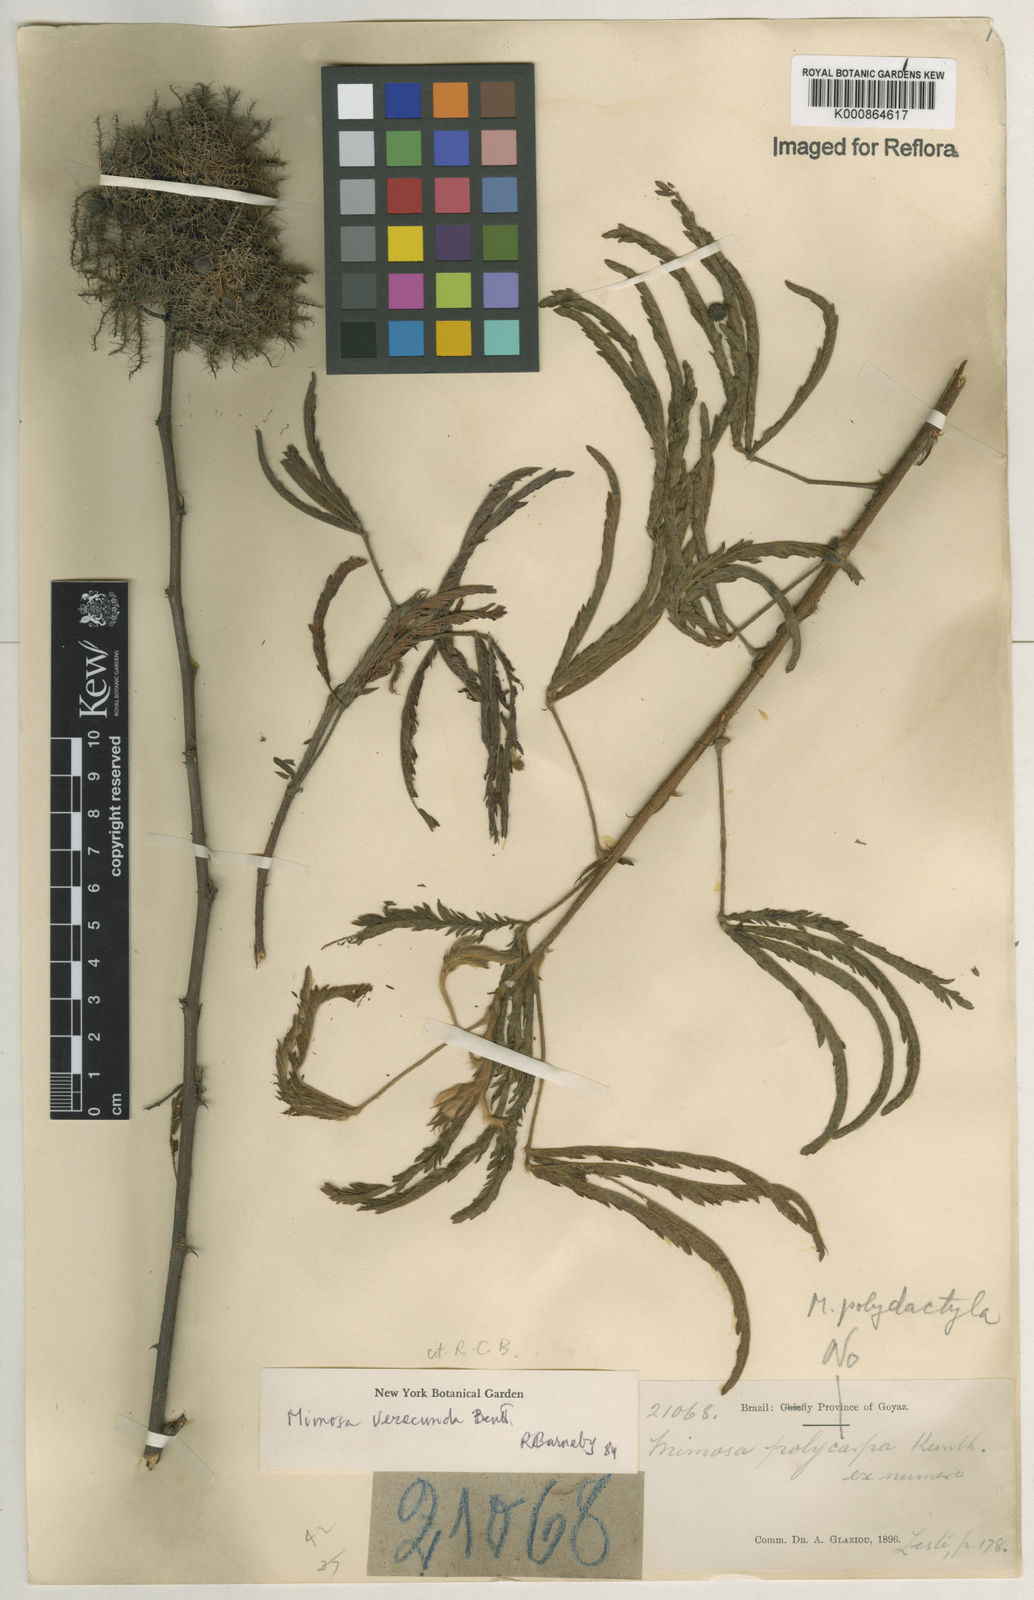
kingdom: Plantae
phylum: Tracheophyta
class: Magnoliopsida
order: Fabales
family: Fabaceae
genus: Mimosa
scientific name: Mimosa verecunda
